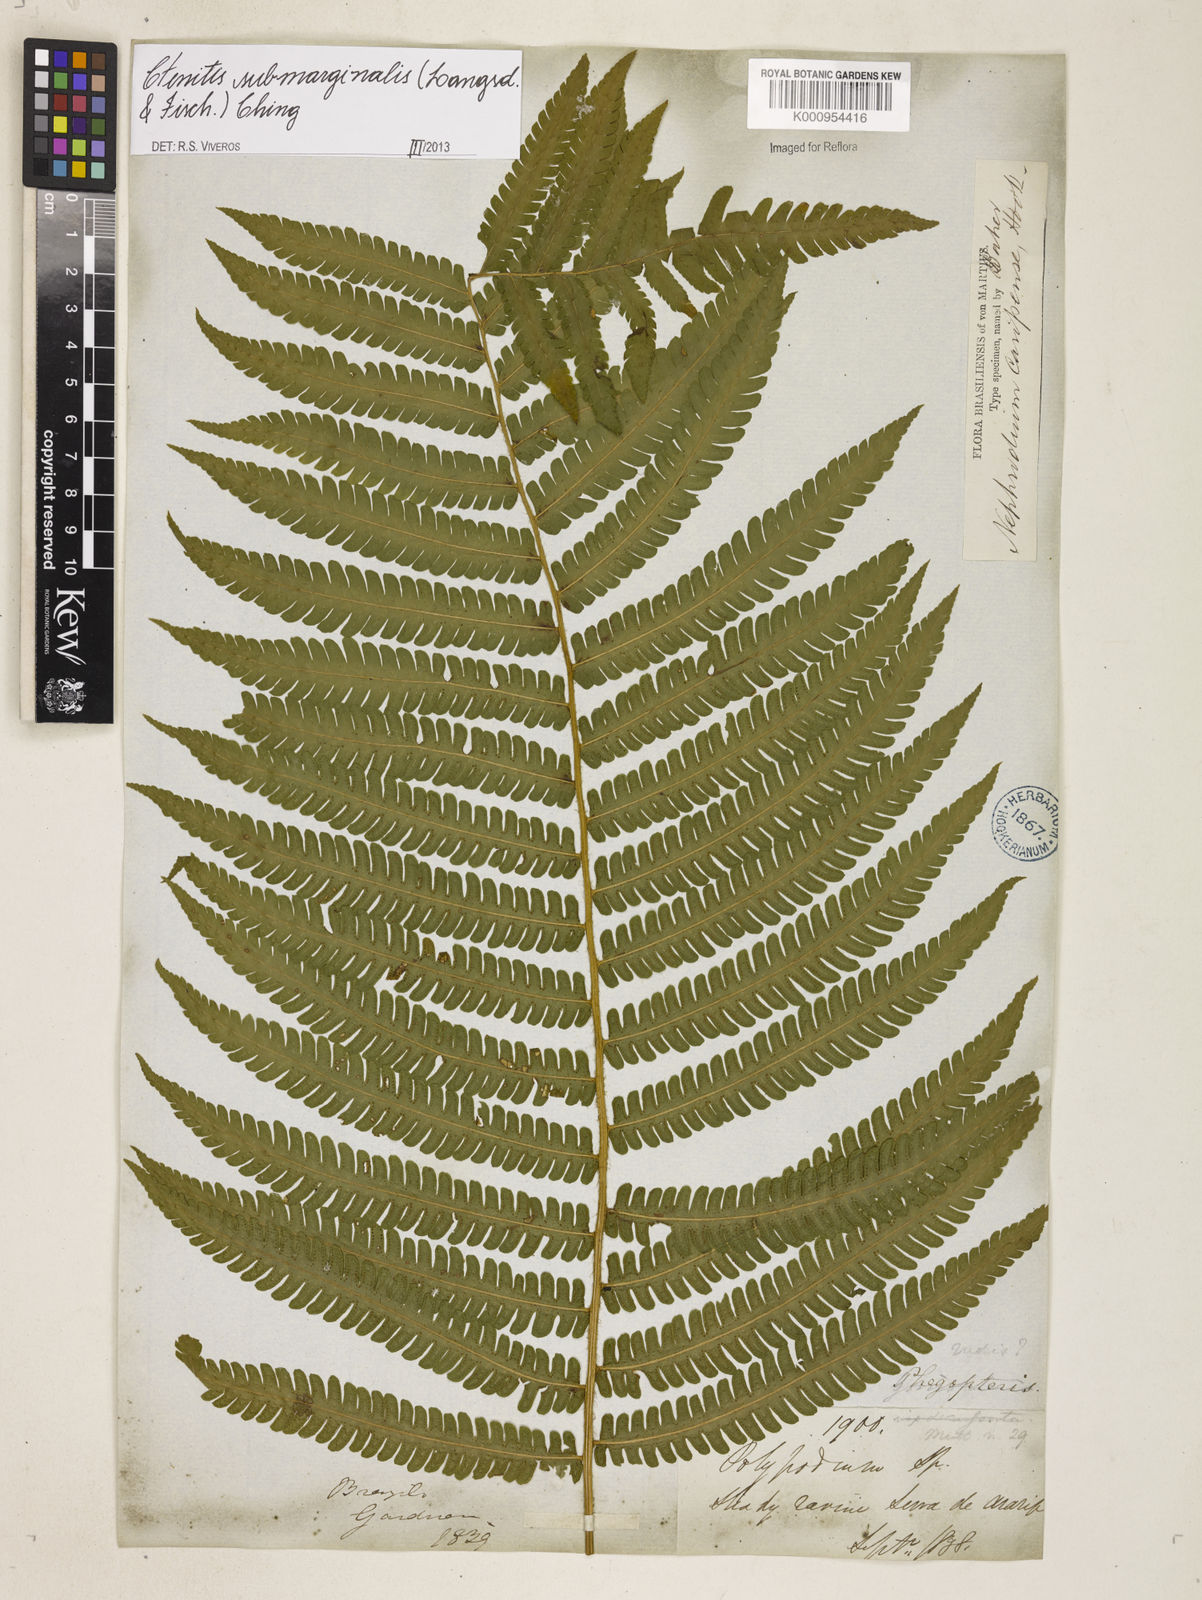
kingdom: Plantae
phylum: Tracheophyta
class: Polypodiopsida
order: Polypodiales
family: Dryopteridaceae
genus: Ctenitis
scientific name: Ctenitis submarginalis
